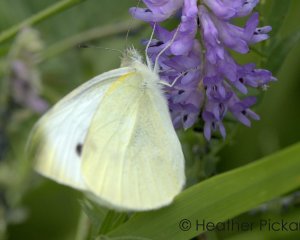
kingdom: Animalia
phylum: Arthropoda
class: Insecta
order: Lepidoptera
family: Pieridae
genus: Pieris
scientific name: Pieris rapae
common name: Cabbage White
